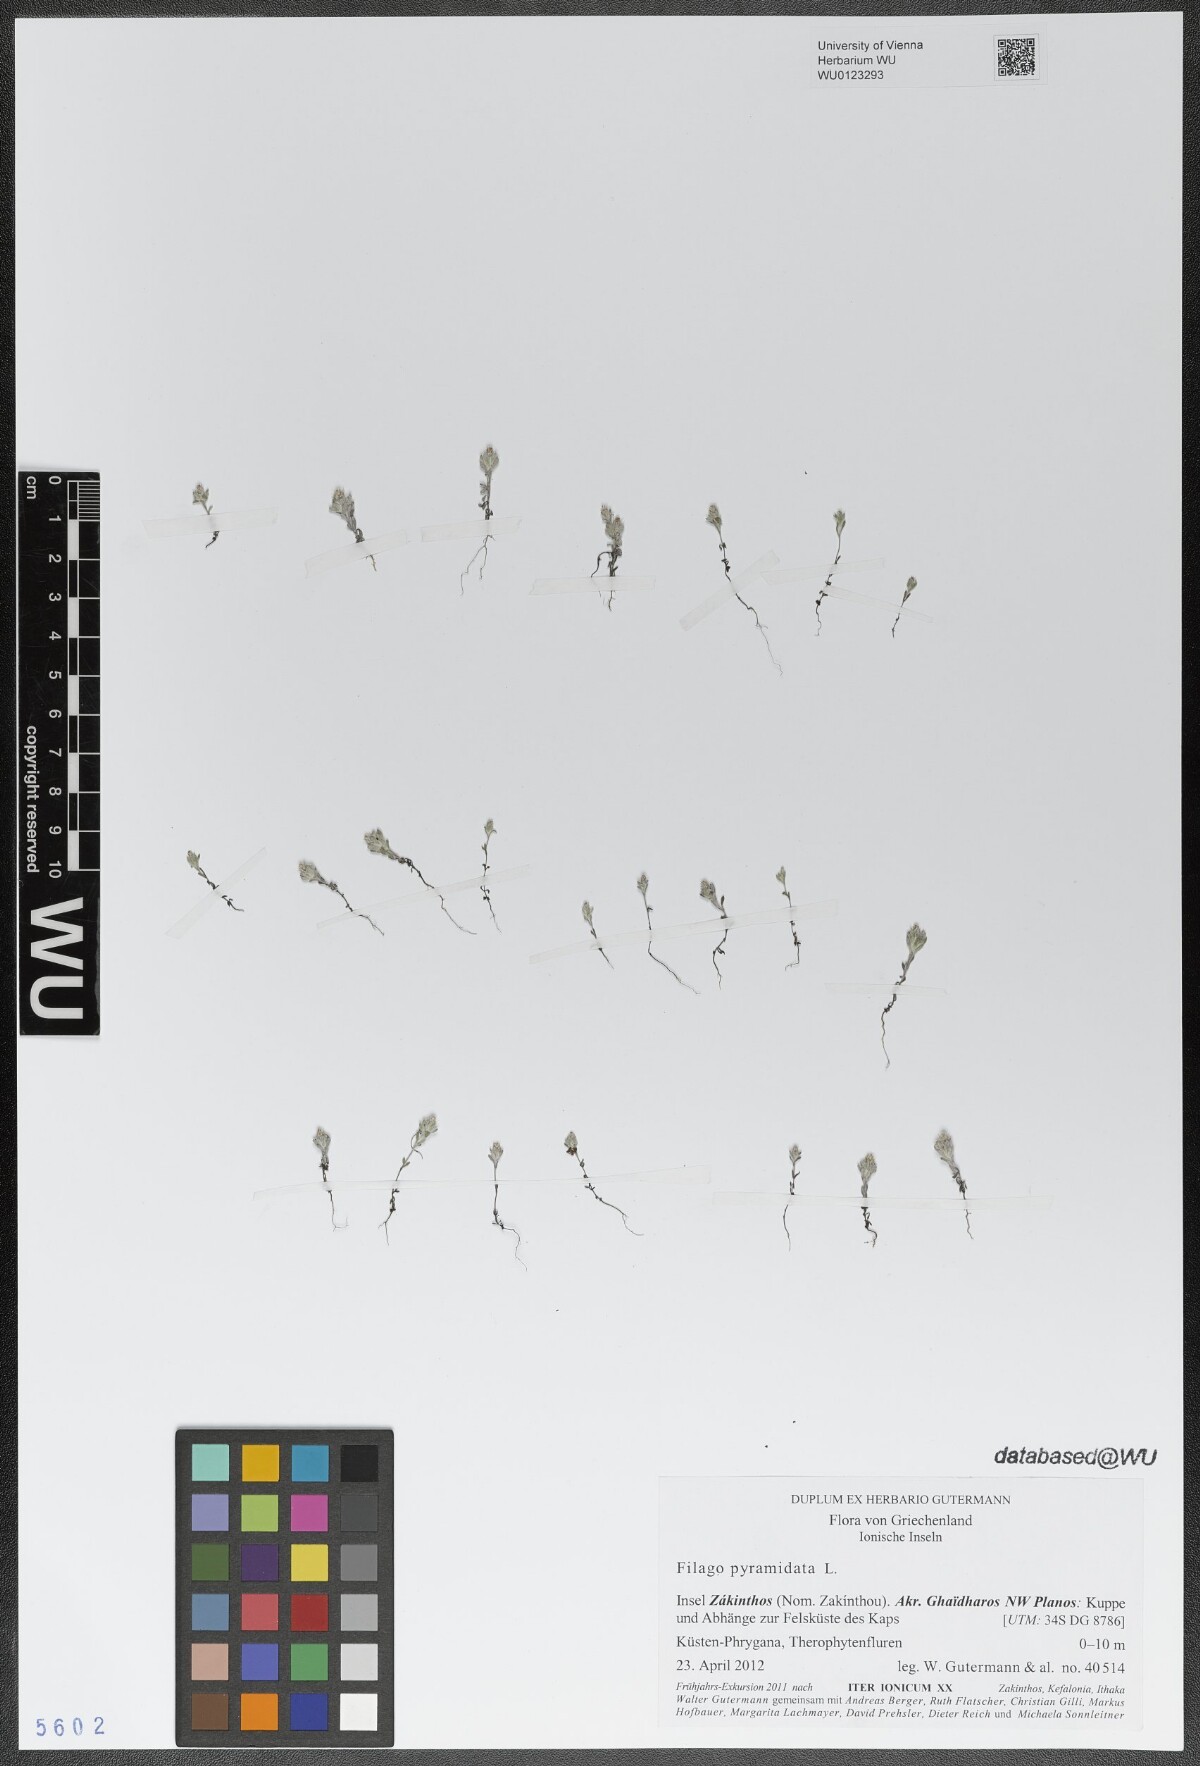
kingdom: Plantae
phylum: Tracheophyta
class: Magnoliopsida
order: Asterales
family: Asteraceae
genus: Filago
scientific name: Filago pyramidata
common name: Broad-leaved cudweed
